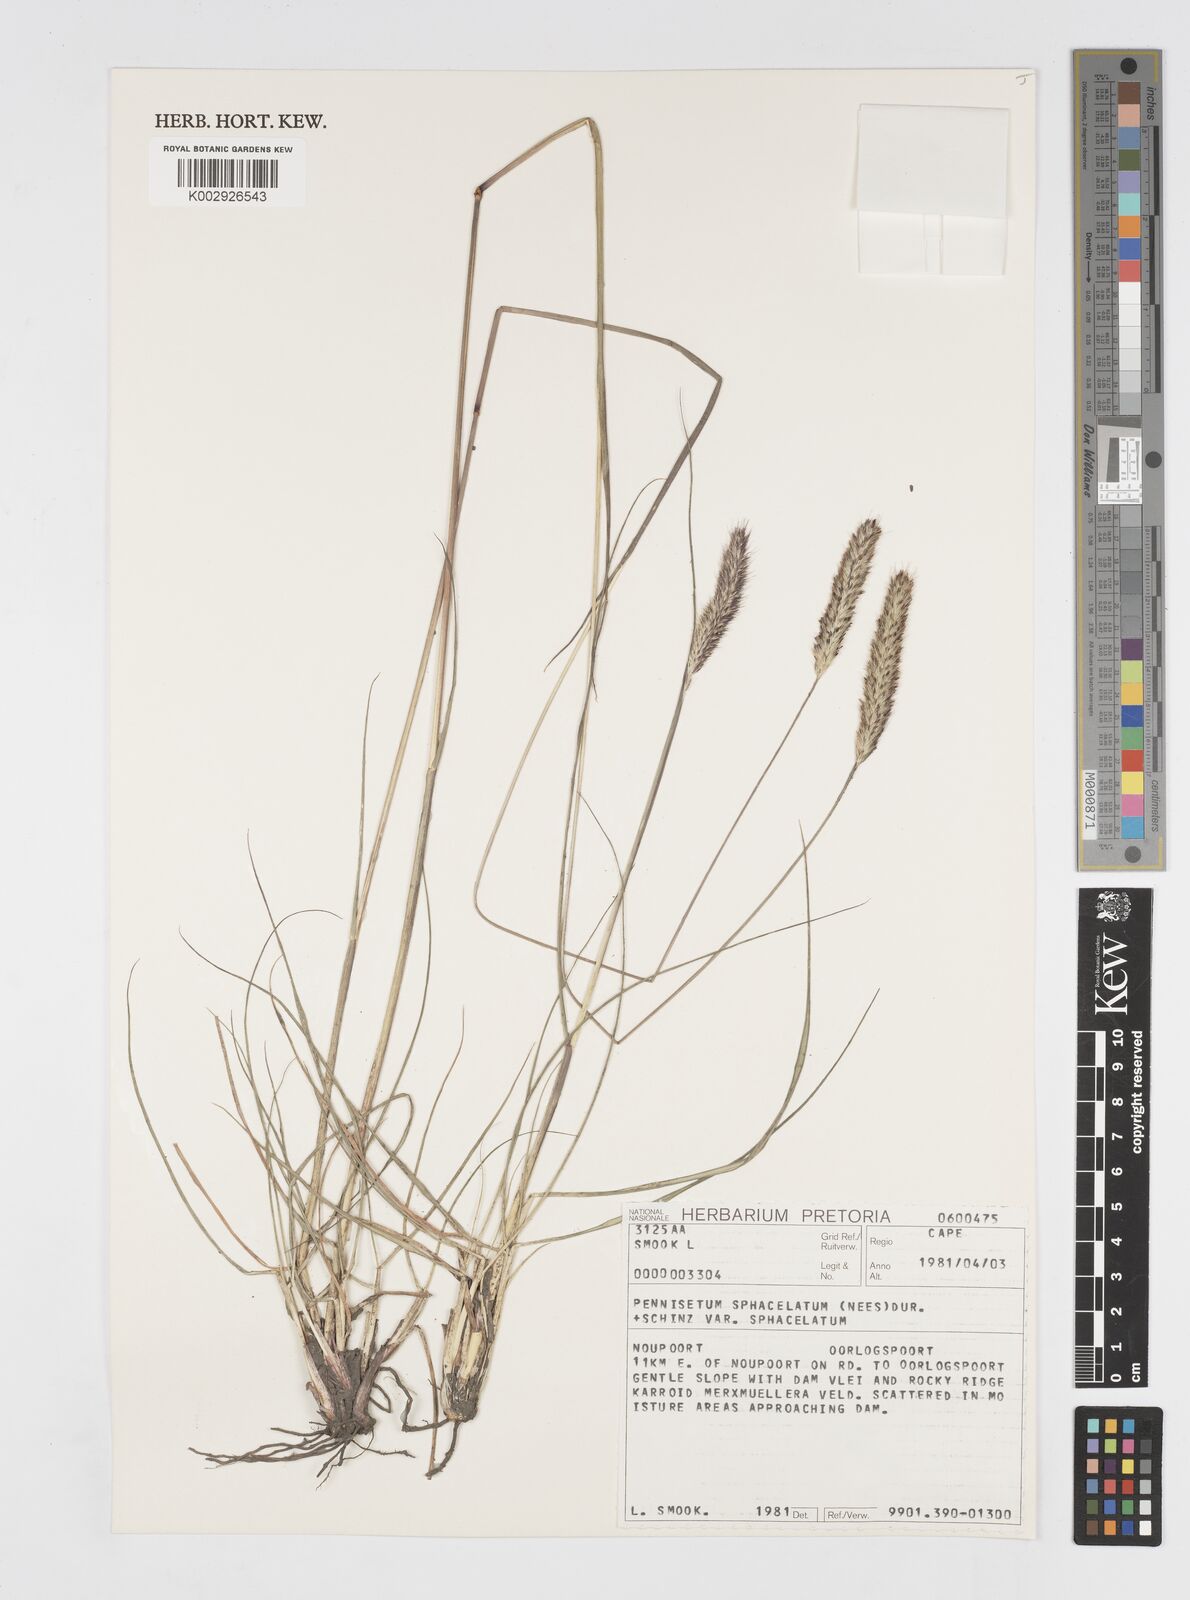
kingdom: Plantae
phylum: Tracheophyta
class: Liliopsida
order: Poales
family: Poaceae
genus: Cenchrus
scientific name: Cenchrus sphacelatus
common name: Bulgras
